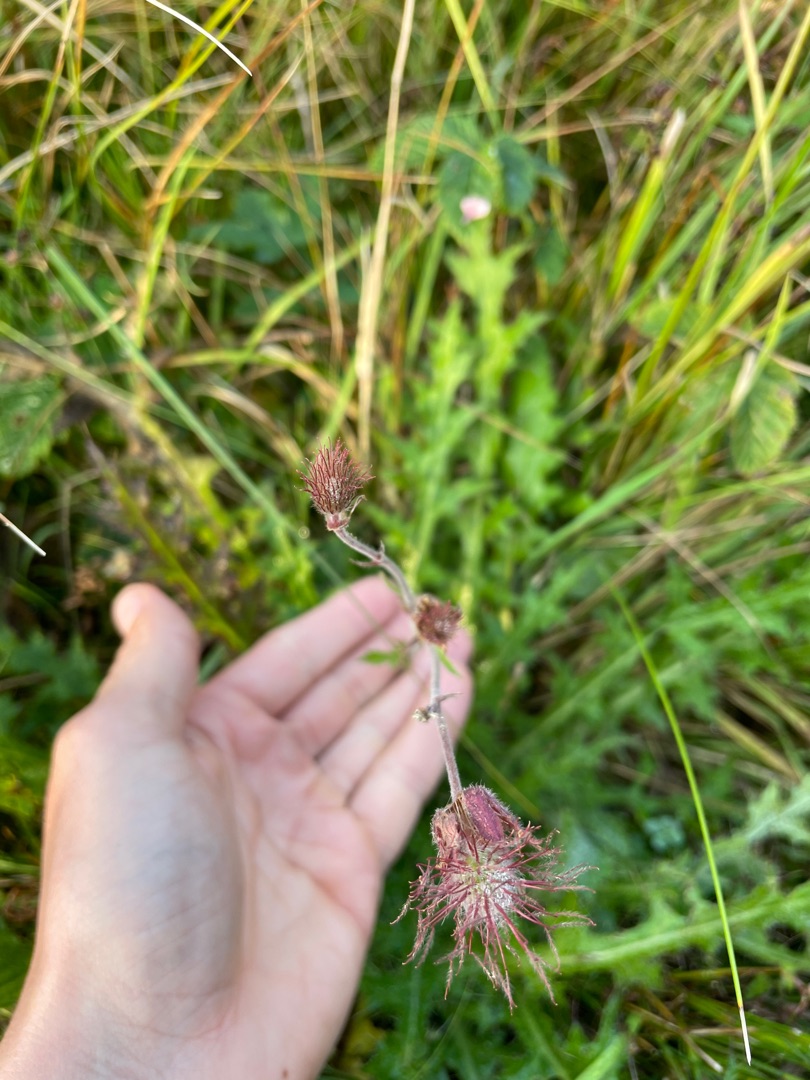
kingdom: Plantae
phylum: Tracheophyta
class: Magnoliopsida
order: Rosales
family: Rosaceae
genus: Geum
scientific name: Geum rivale
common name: Eng-nellikerod
